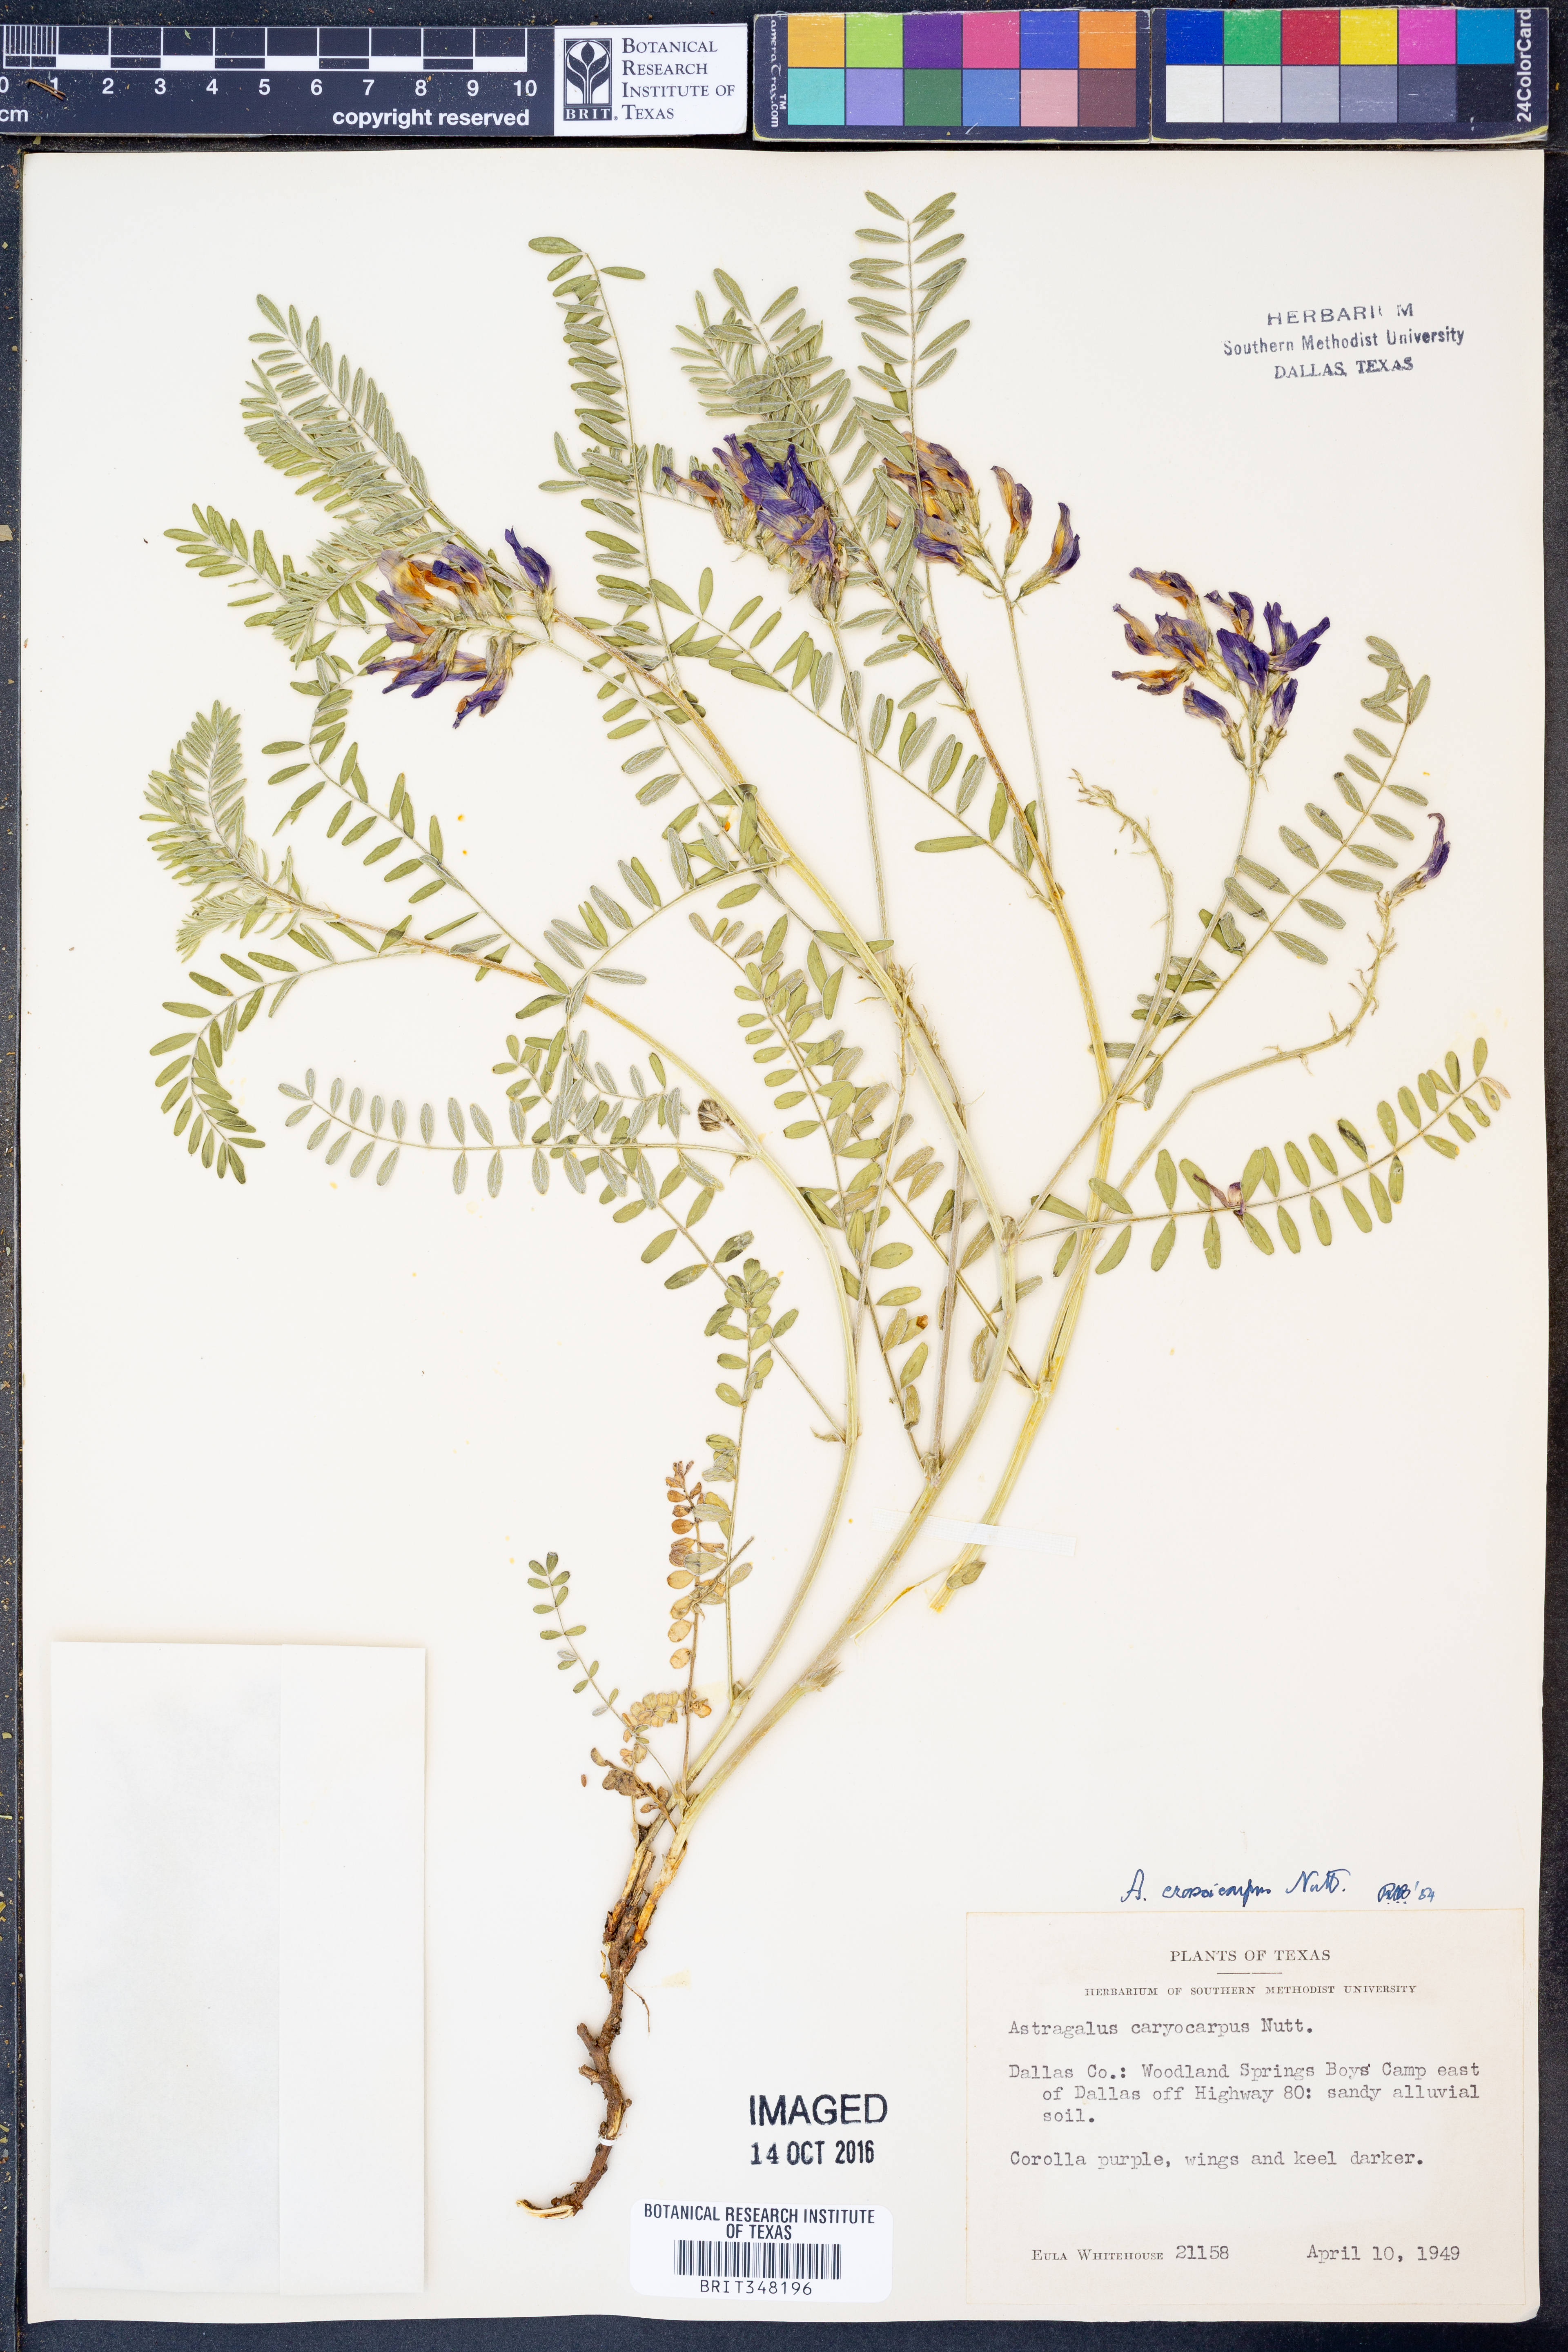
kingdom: Plantae
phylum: Tracheophyta
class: Magnoliopsida
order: Fabales
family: Fabaceae
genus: Astragalus
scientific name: Astragalus crassicarpus
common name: Ground-plum milk-vetch
